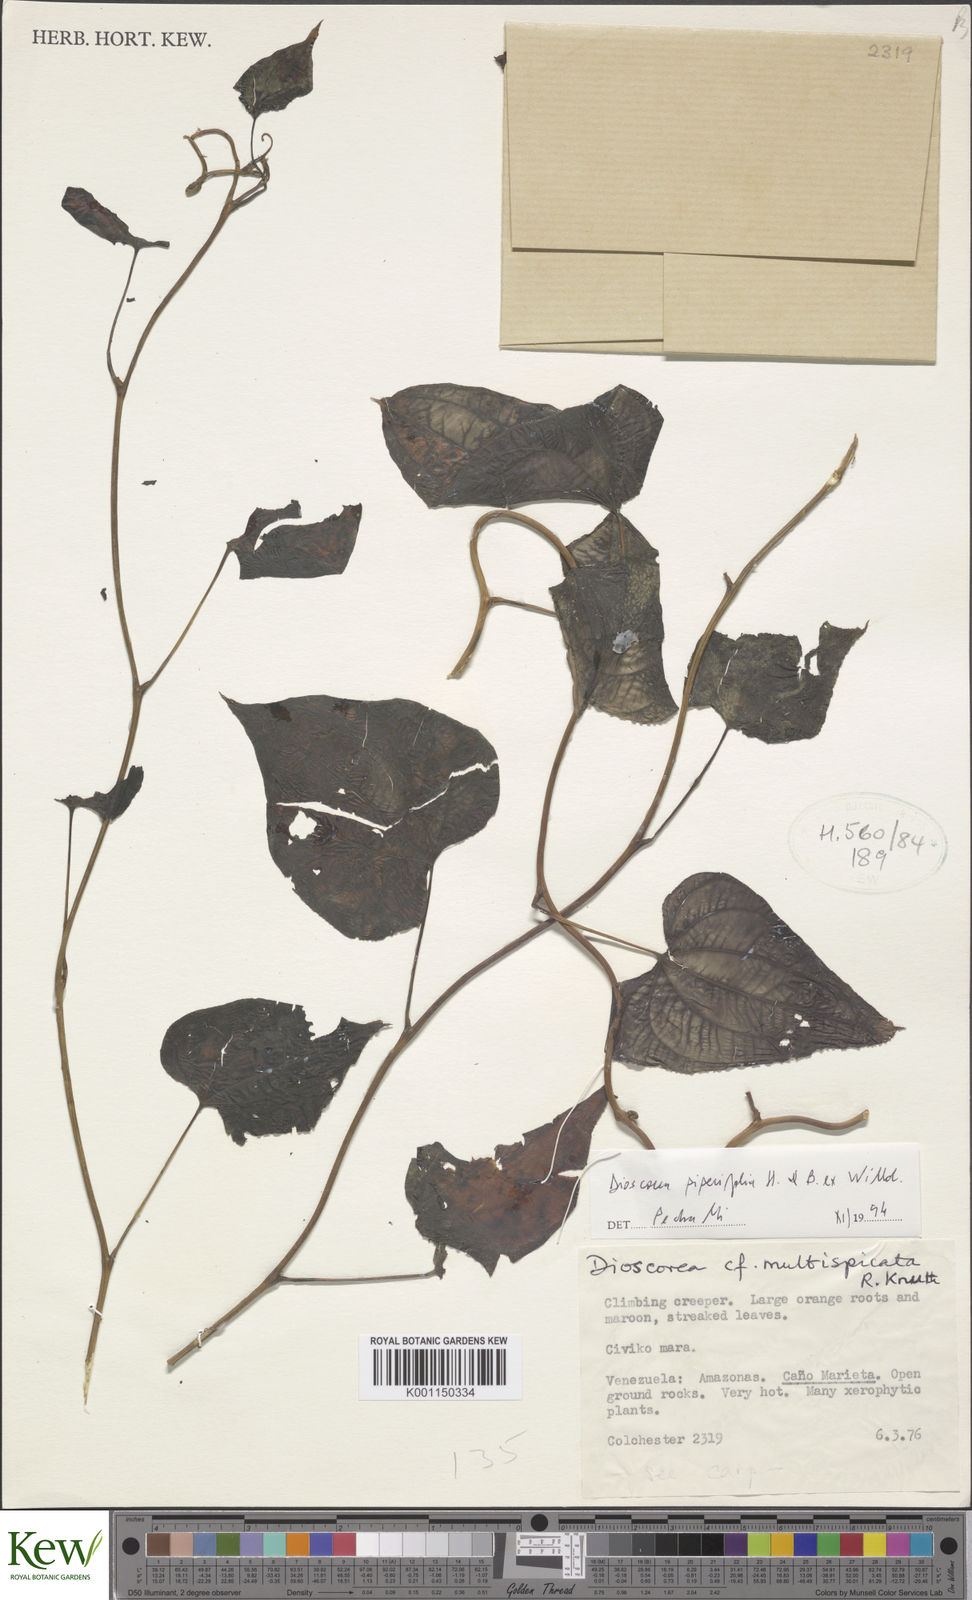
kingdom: Plantae
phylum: Tracheophyta
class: Liliopsida
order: Dioscoreales
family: Dioscoreaceae
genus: Dioscorea
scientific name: Dioscorea piperifolia
